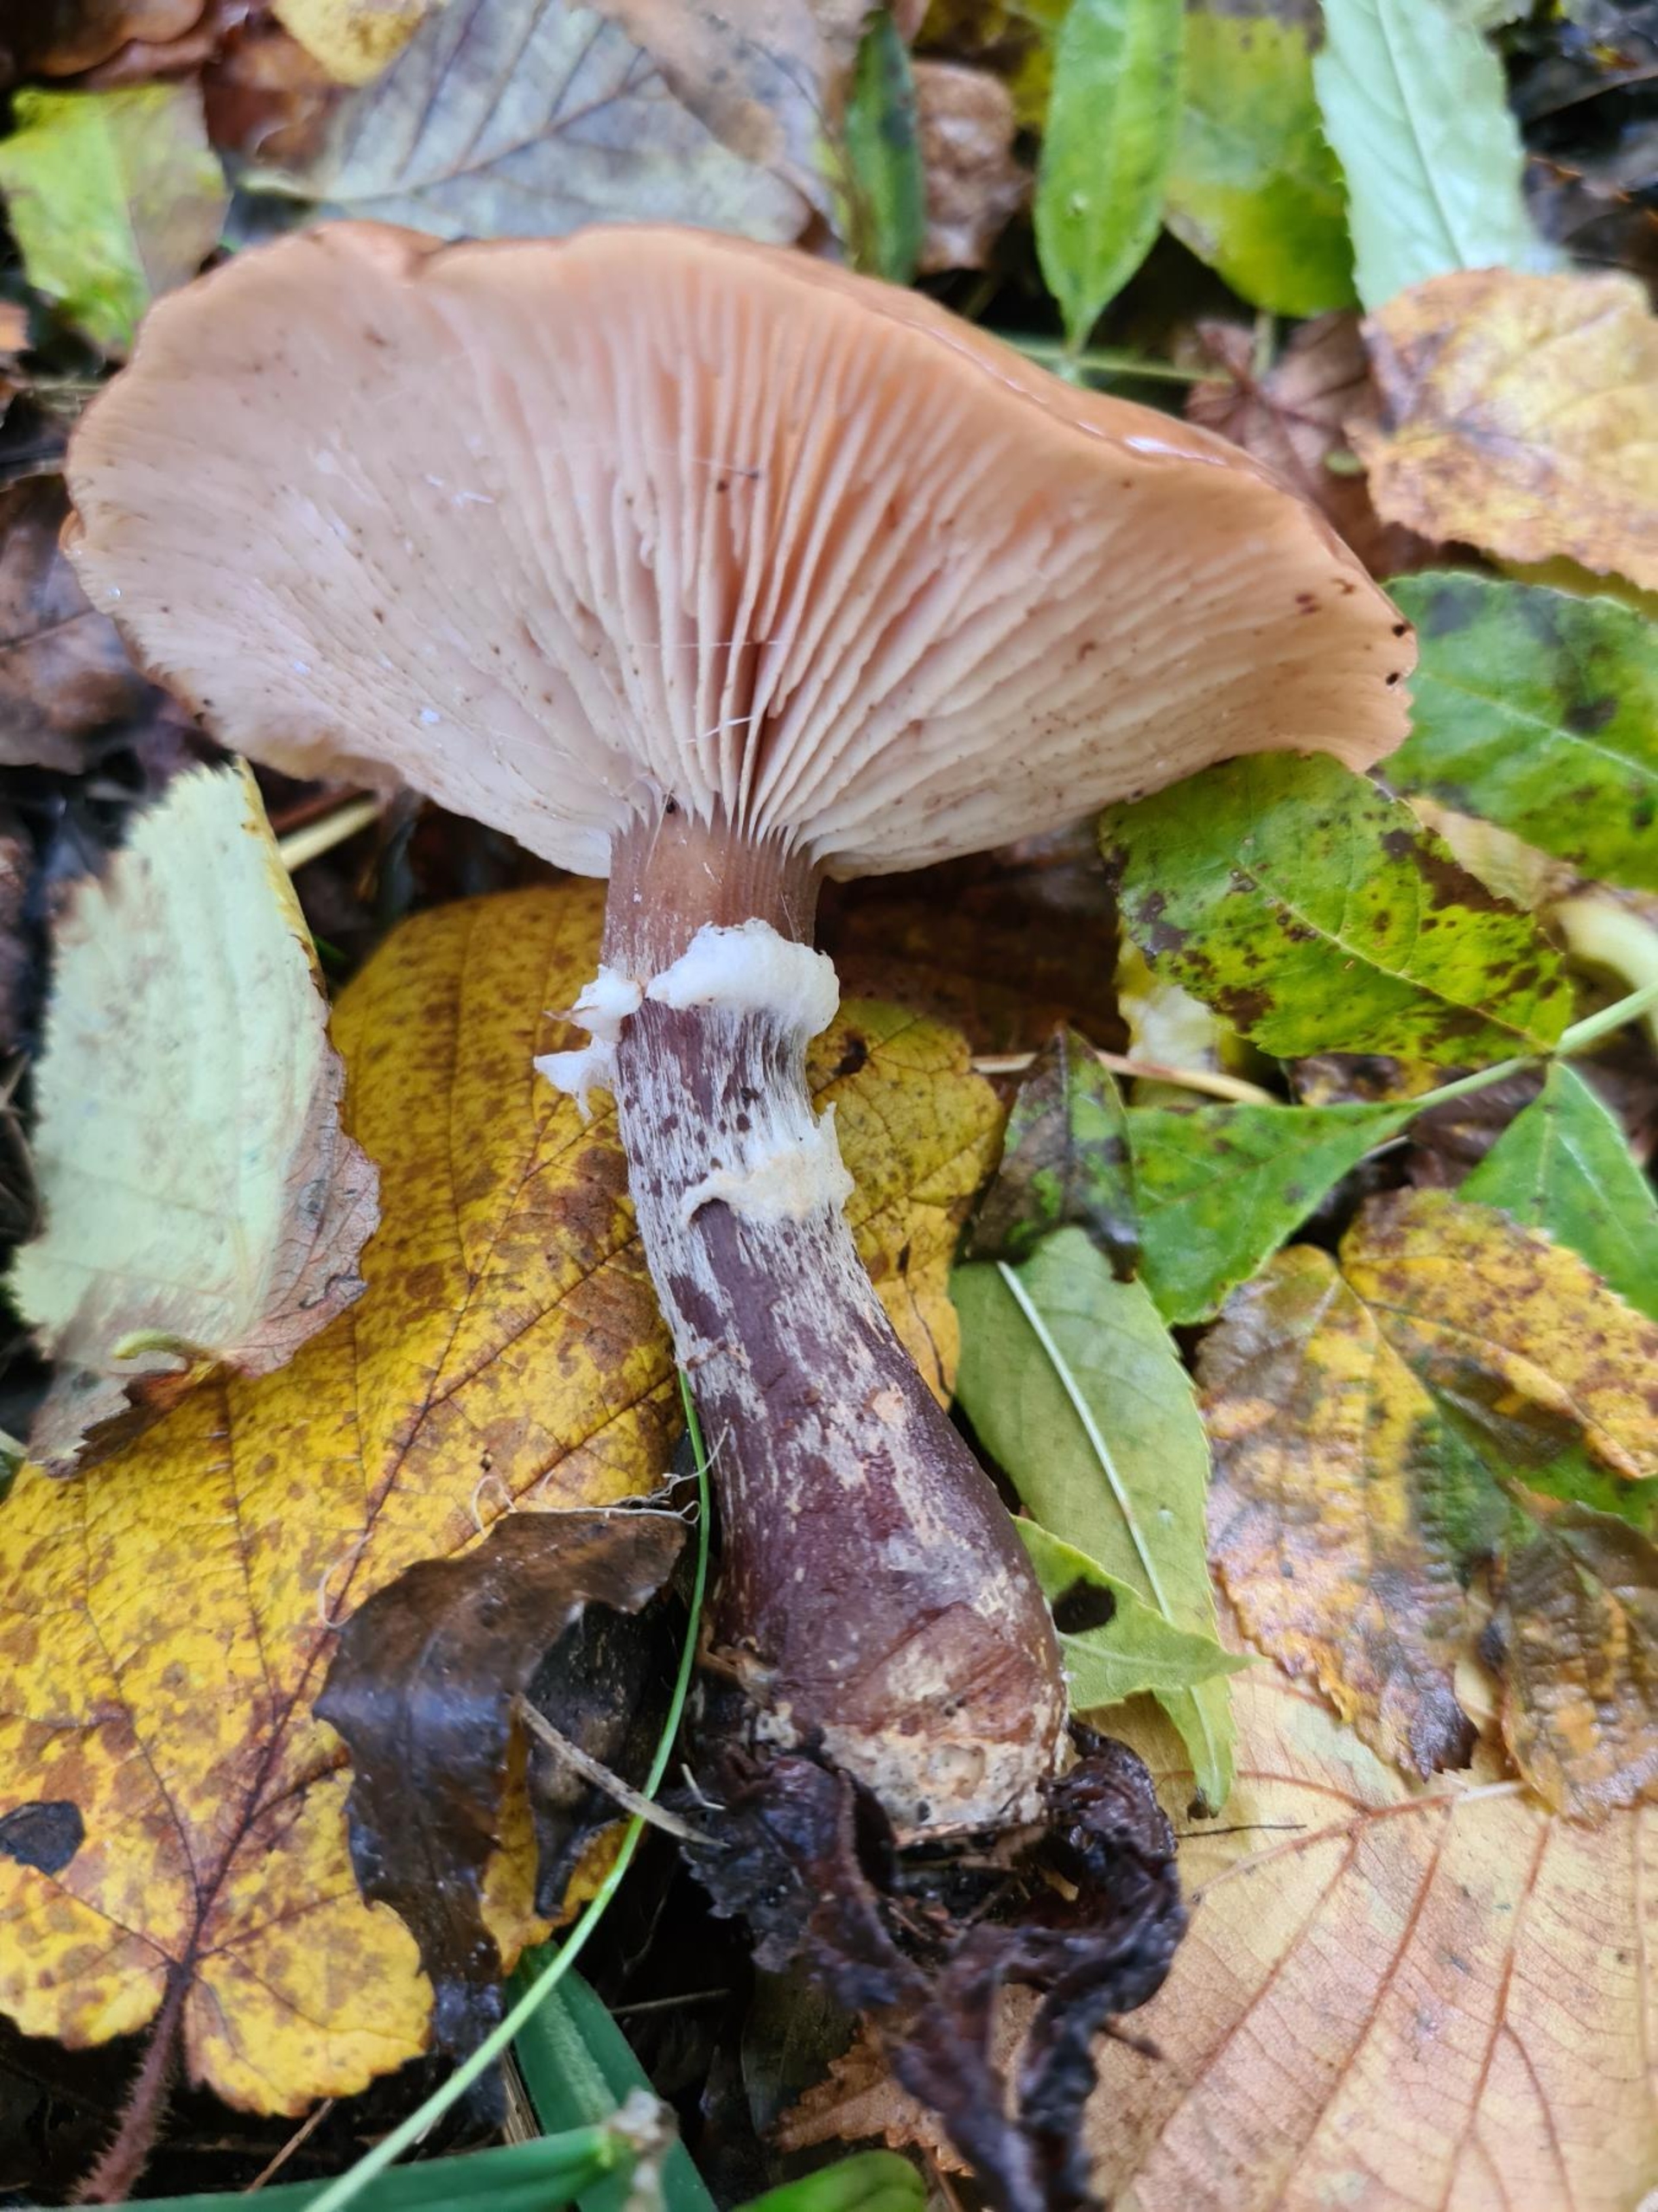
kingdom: Fungi
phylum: Basidiomycota
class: Agaricomycetes
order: Agaricales
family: Physalacriaceae
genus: Armillaria
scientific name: Armillaria lutea
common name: Køllestokket honningsvamp
